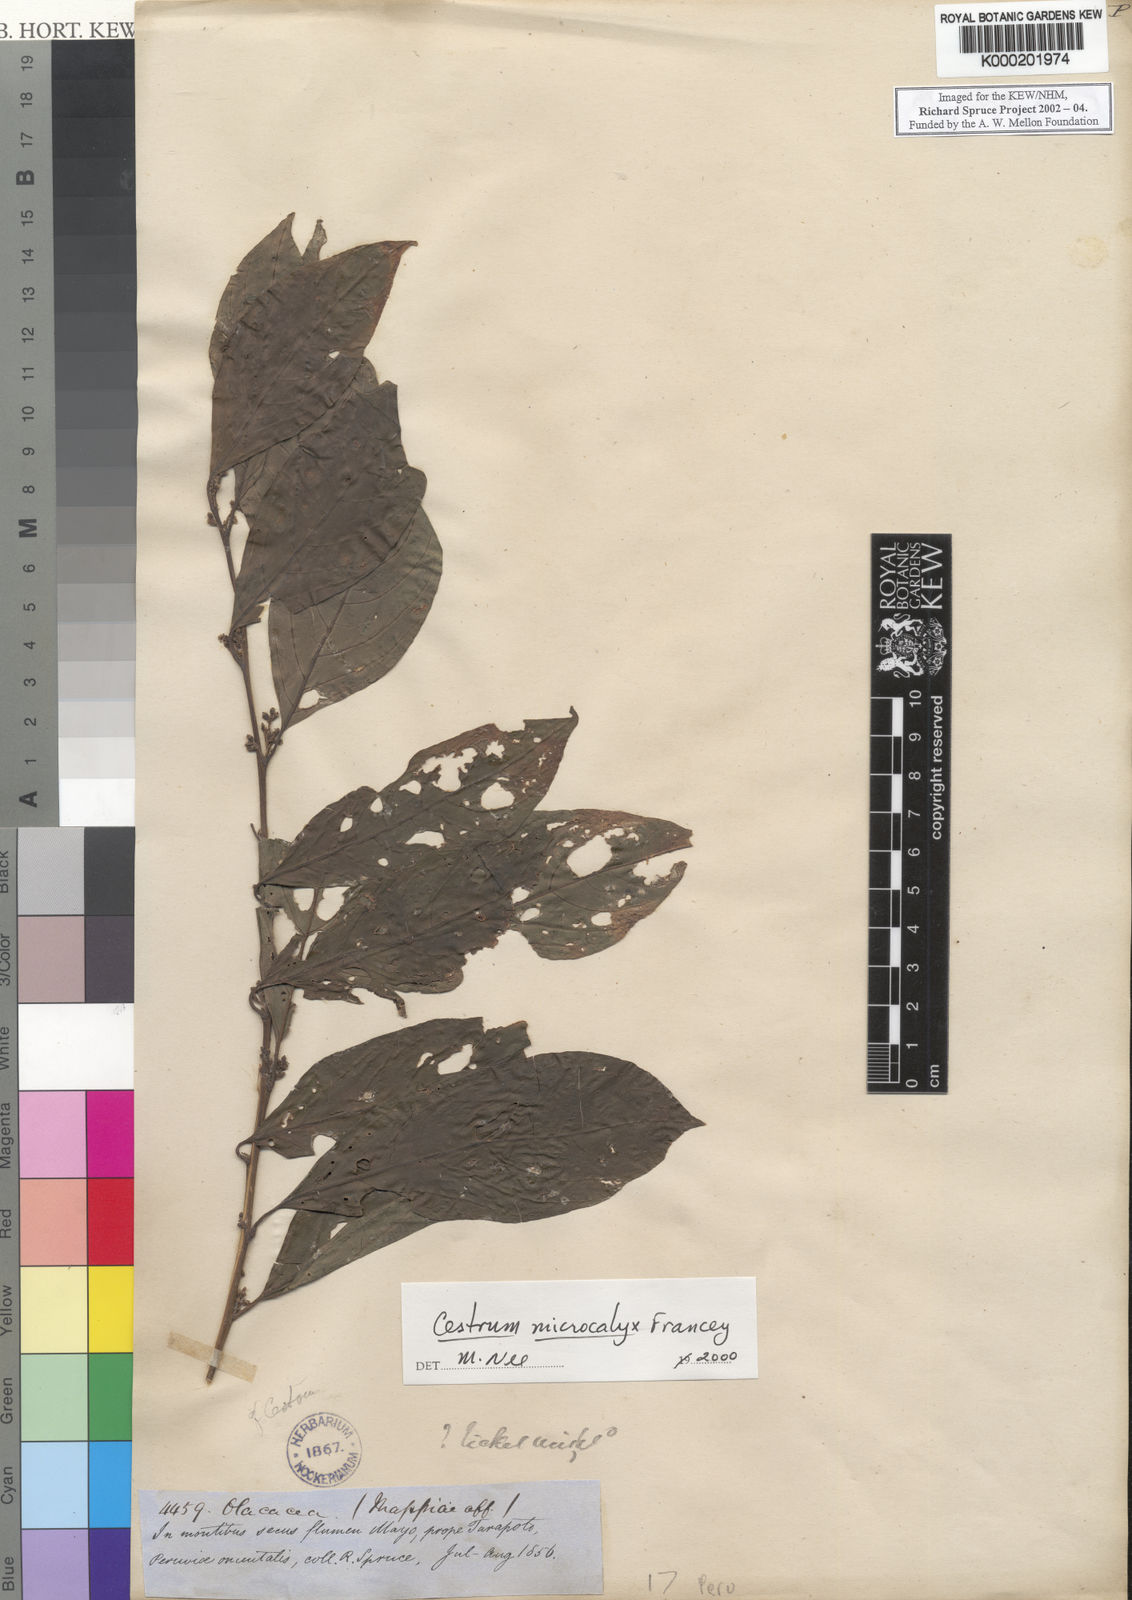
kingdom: Plantae
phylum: Tracheophyta
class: Magnoliopsida
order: Solanales
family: Solanaceae
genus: Cestrum
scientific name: Cestrum microcalyx
